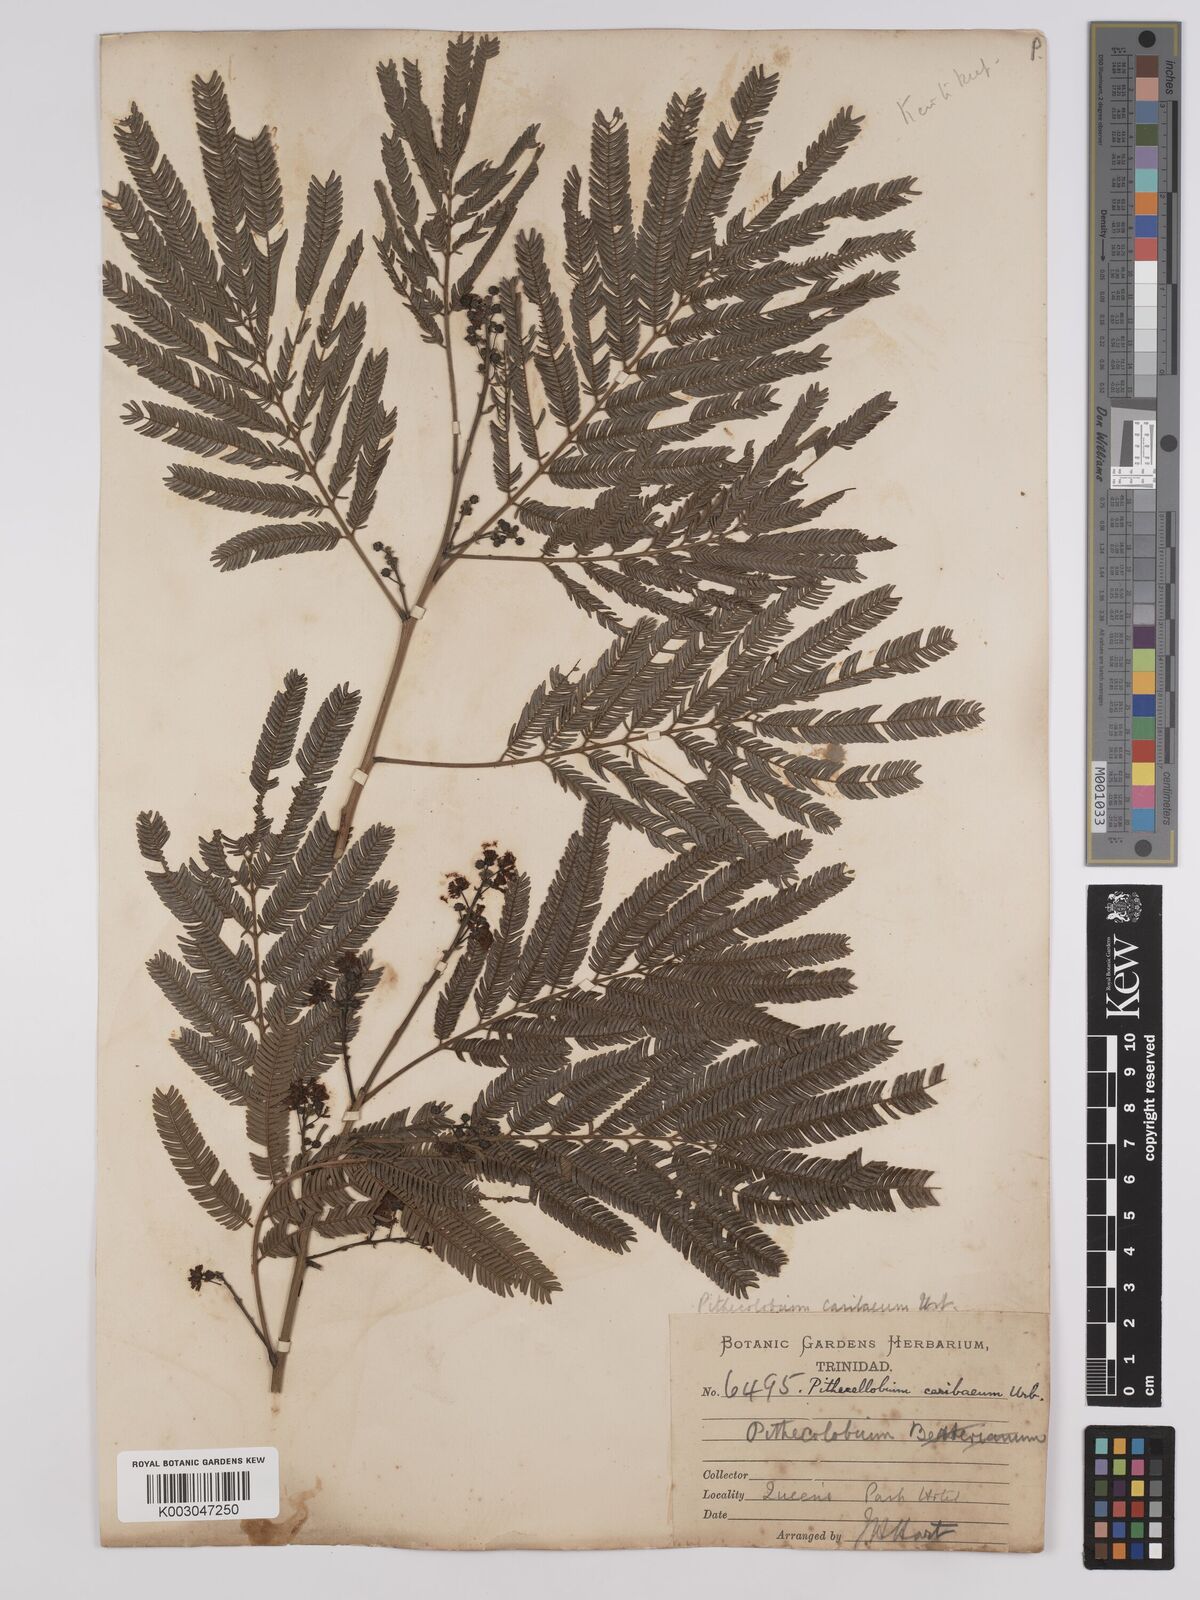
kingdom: Plantae
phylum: Tracheophyta
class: Magnoliopsida
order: Fabales
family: Fabaceae
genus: Albizia
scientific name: Albizia niopoides
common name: Silk tree
